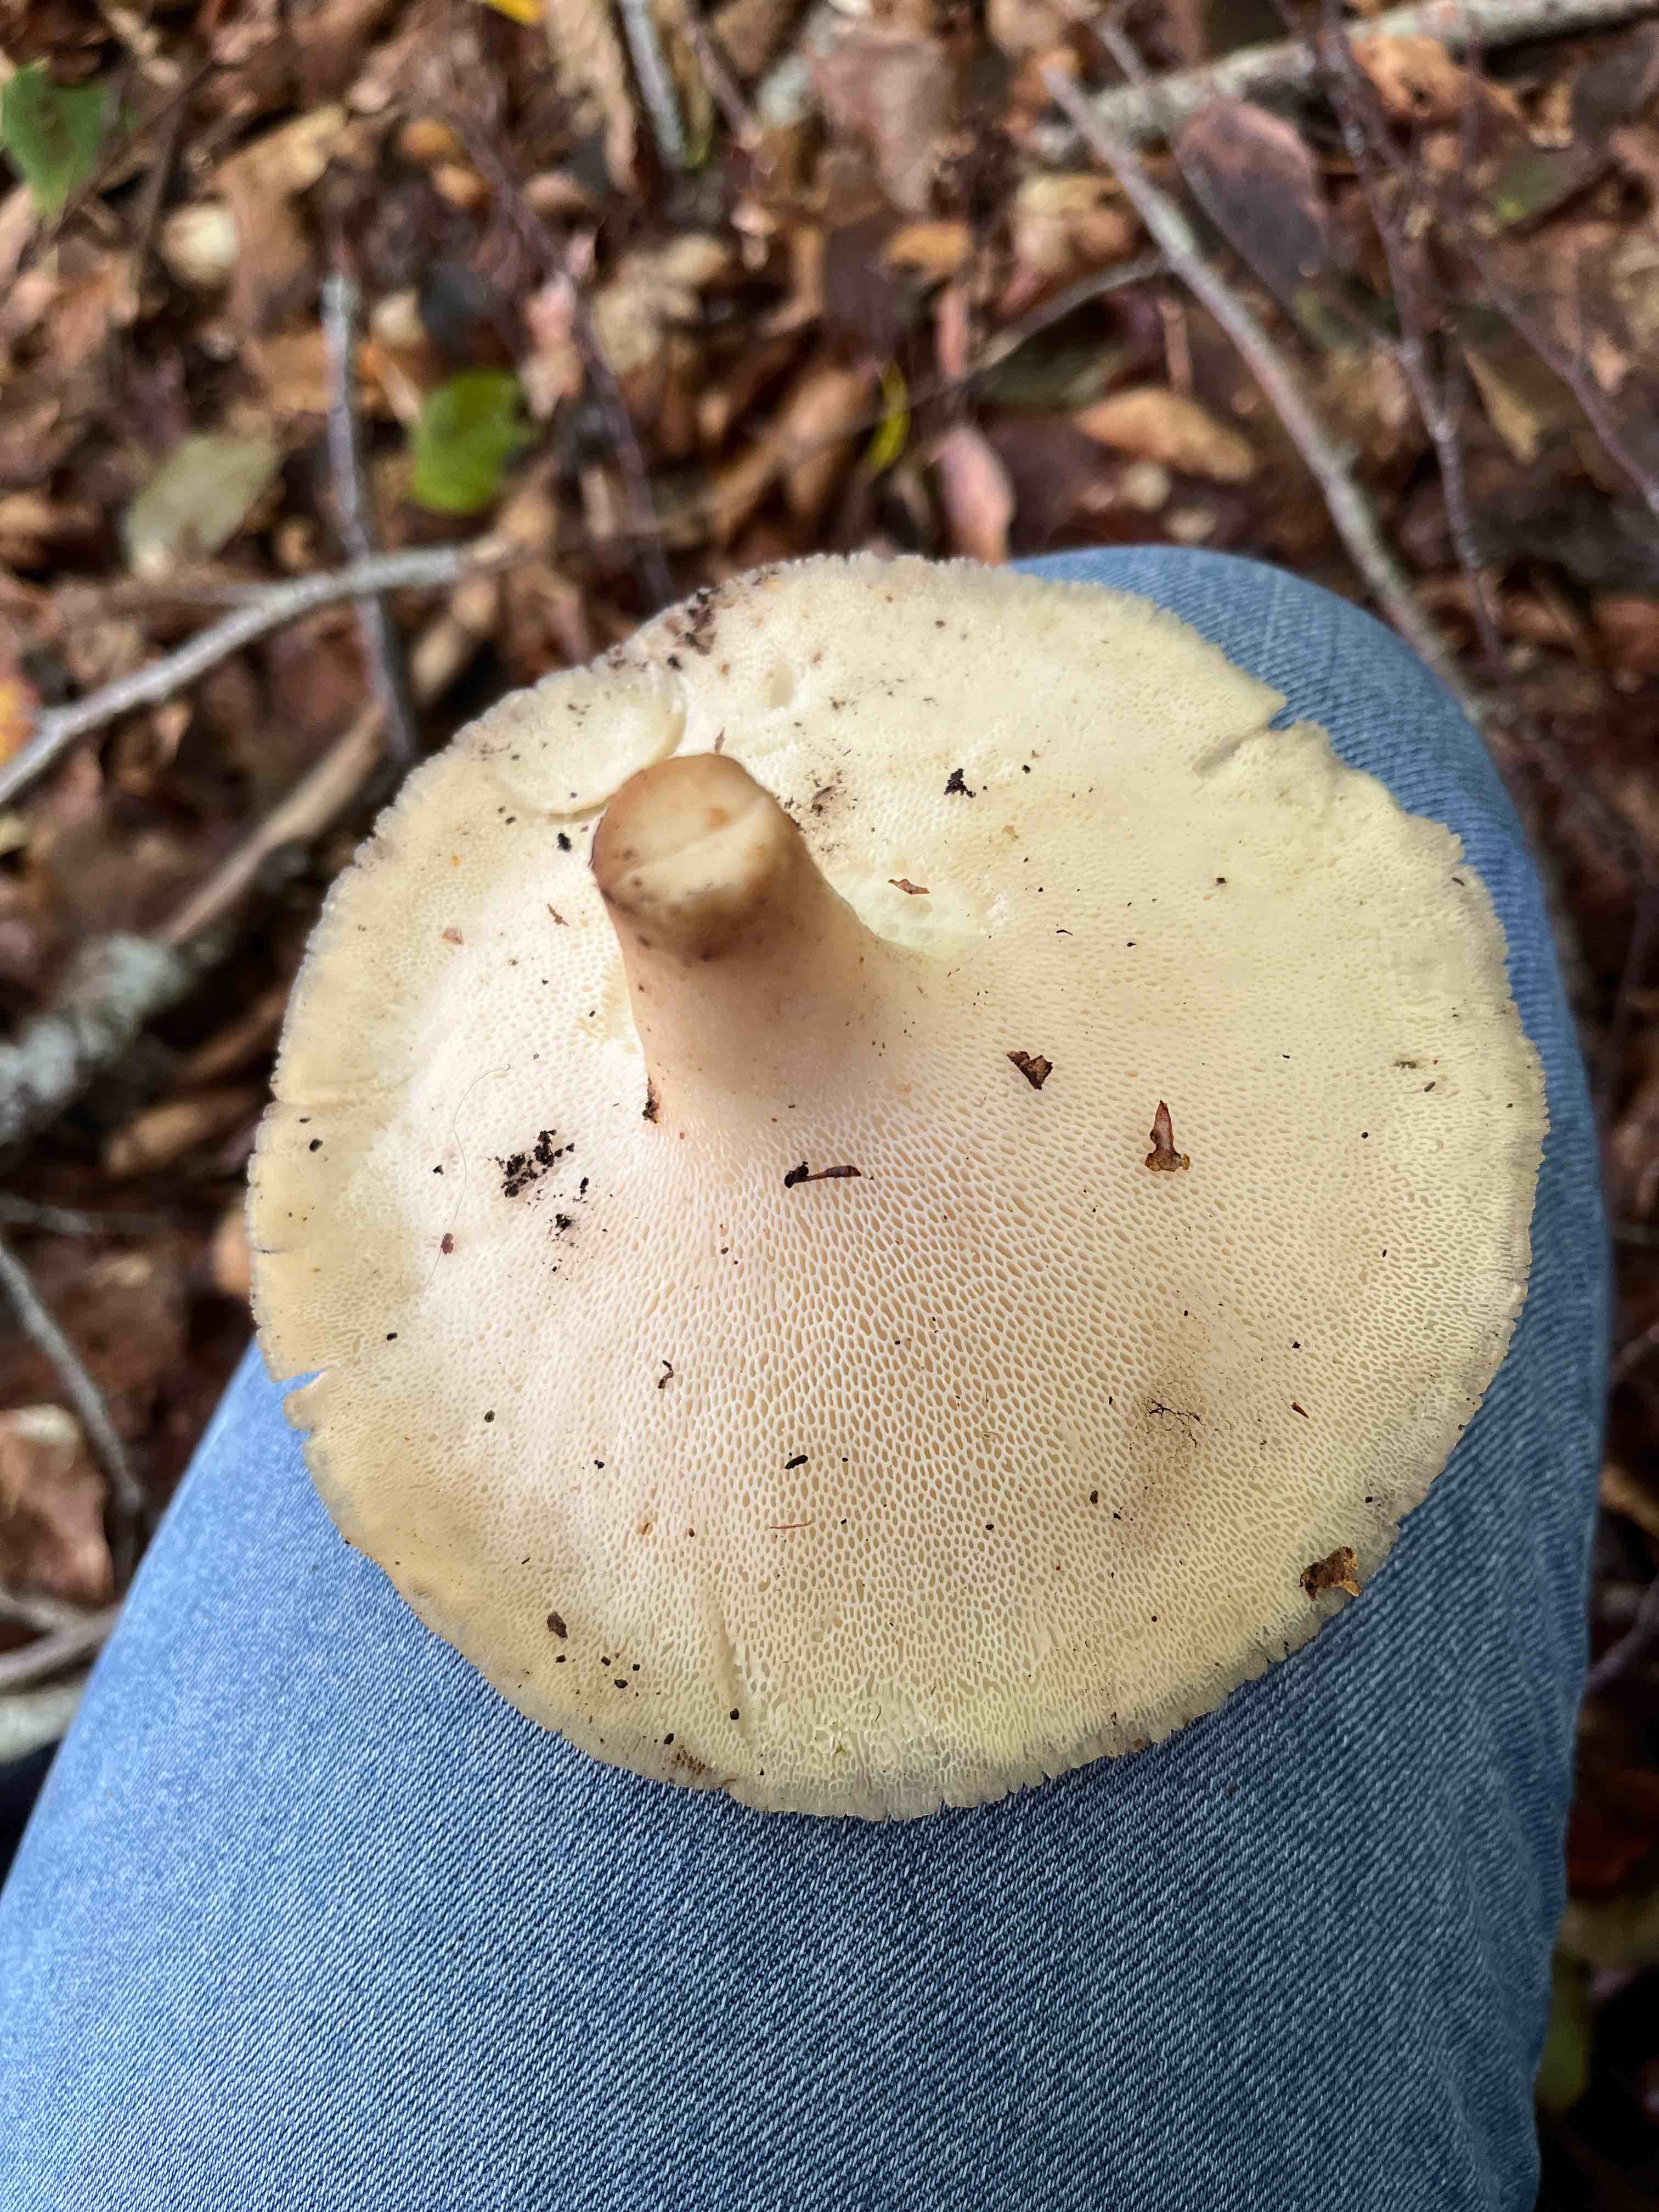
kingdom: Fungi
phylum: Basidiomycota
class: Agaricomycetes
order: Polyporales
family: Polyporaceae
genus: Polyporus
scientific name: Polyporus tuberaster
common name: knoldet stilkporesvamp
